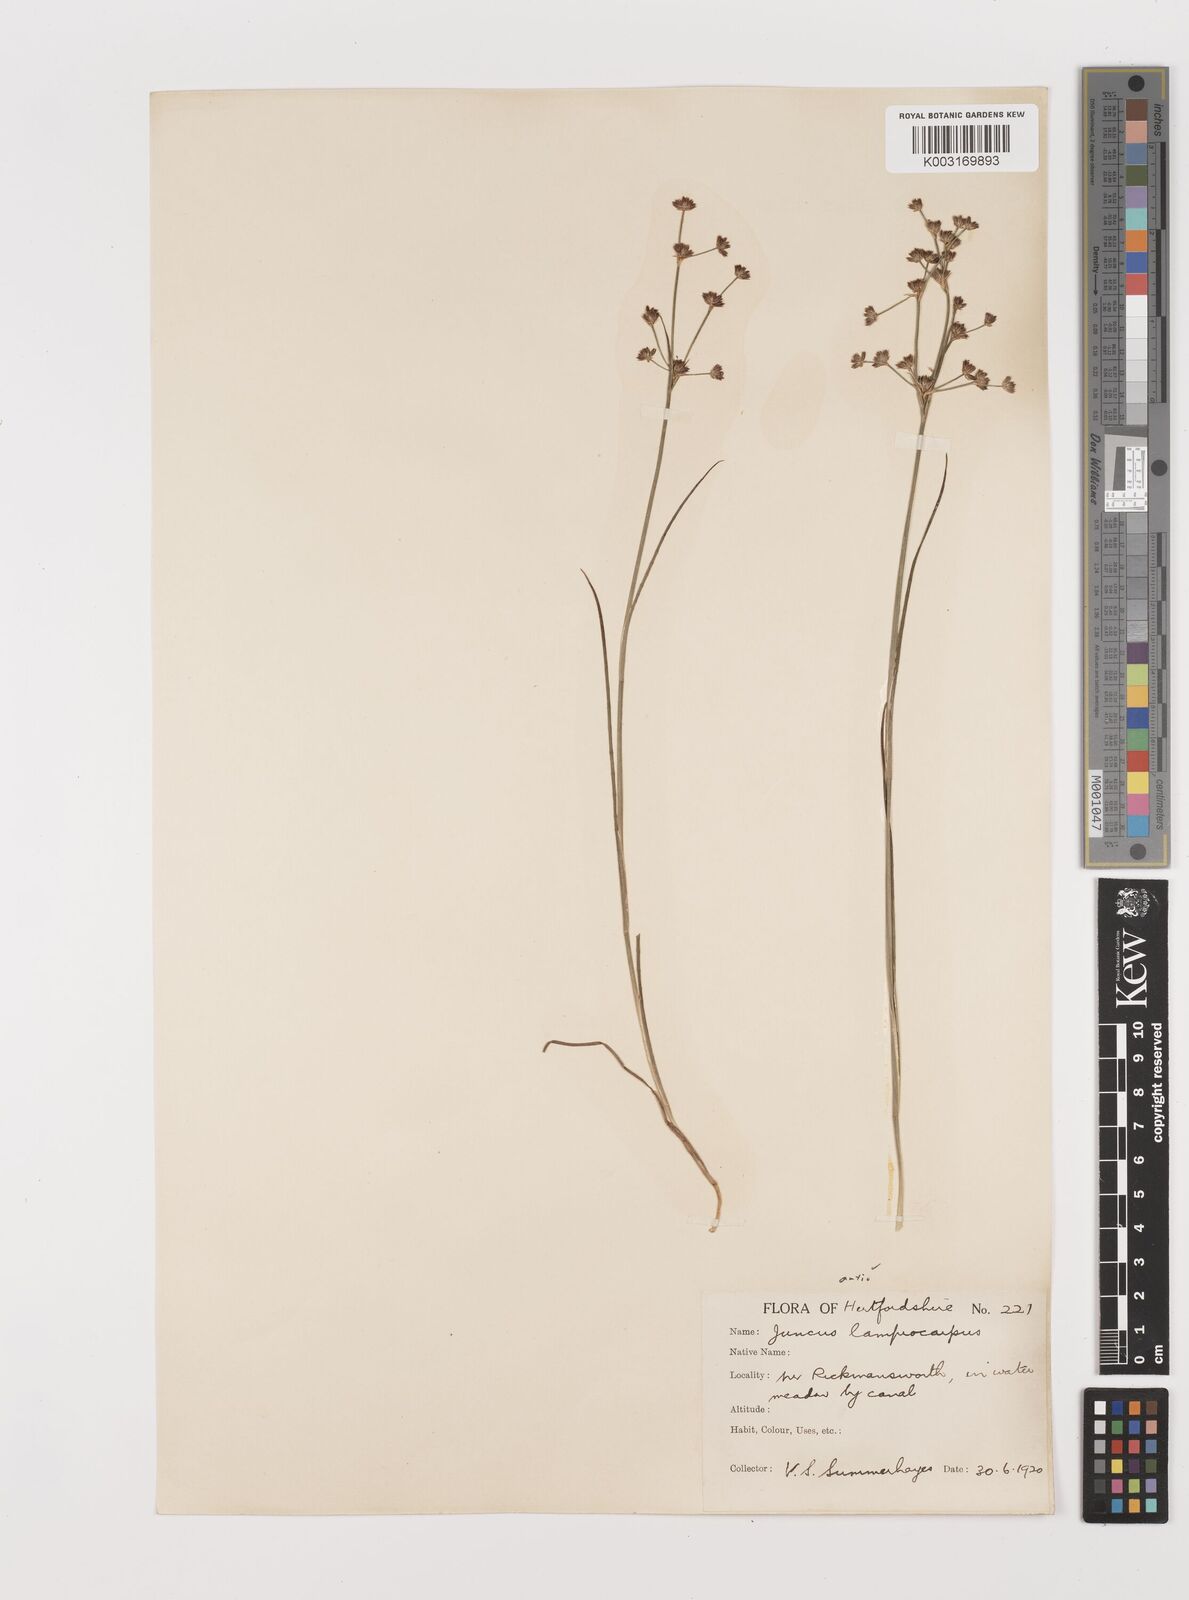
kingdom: Plantae
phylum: Tracheophyta
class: Liliopsida
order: Poales
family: Juncaceae
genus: Juncus
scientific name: Juncus articulatus
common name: Jointed rush
